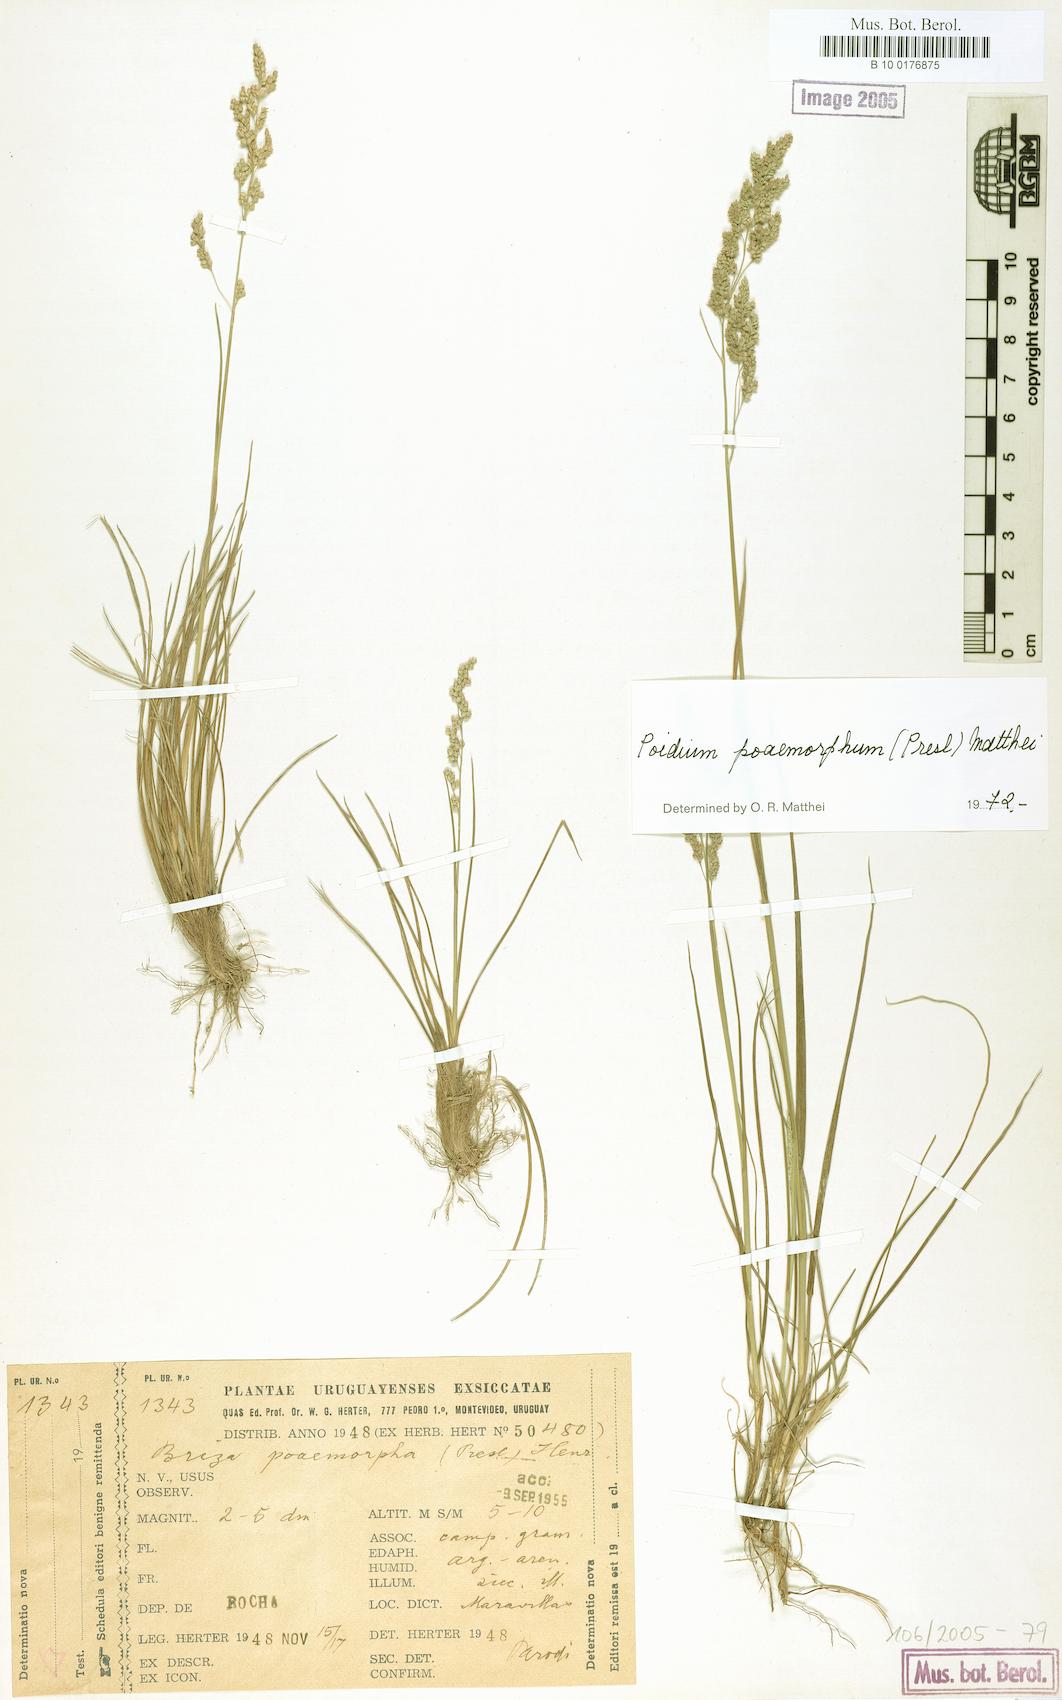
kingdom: Plantae
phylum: Tracheophyta
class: Liliopsida
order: Poales
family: Poaceae
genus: Chascolytrum
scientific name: Chascolytrum poomorphum
